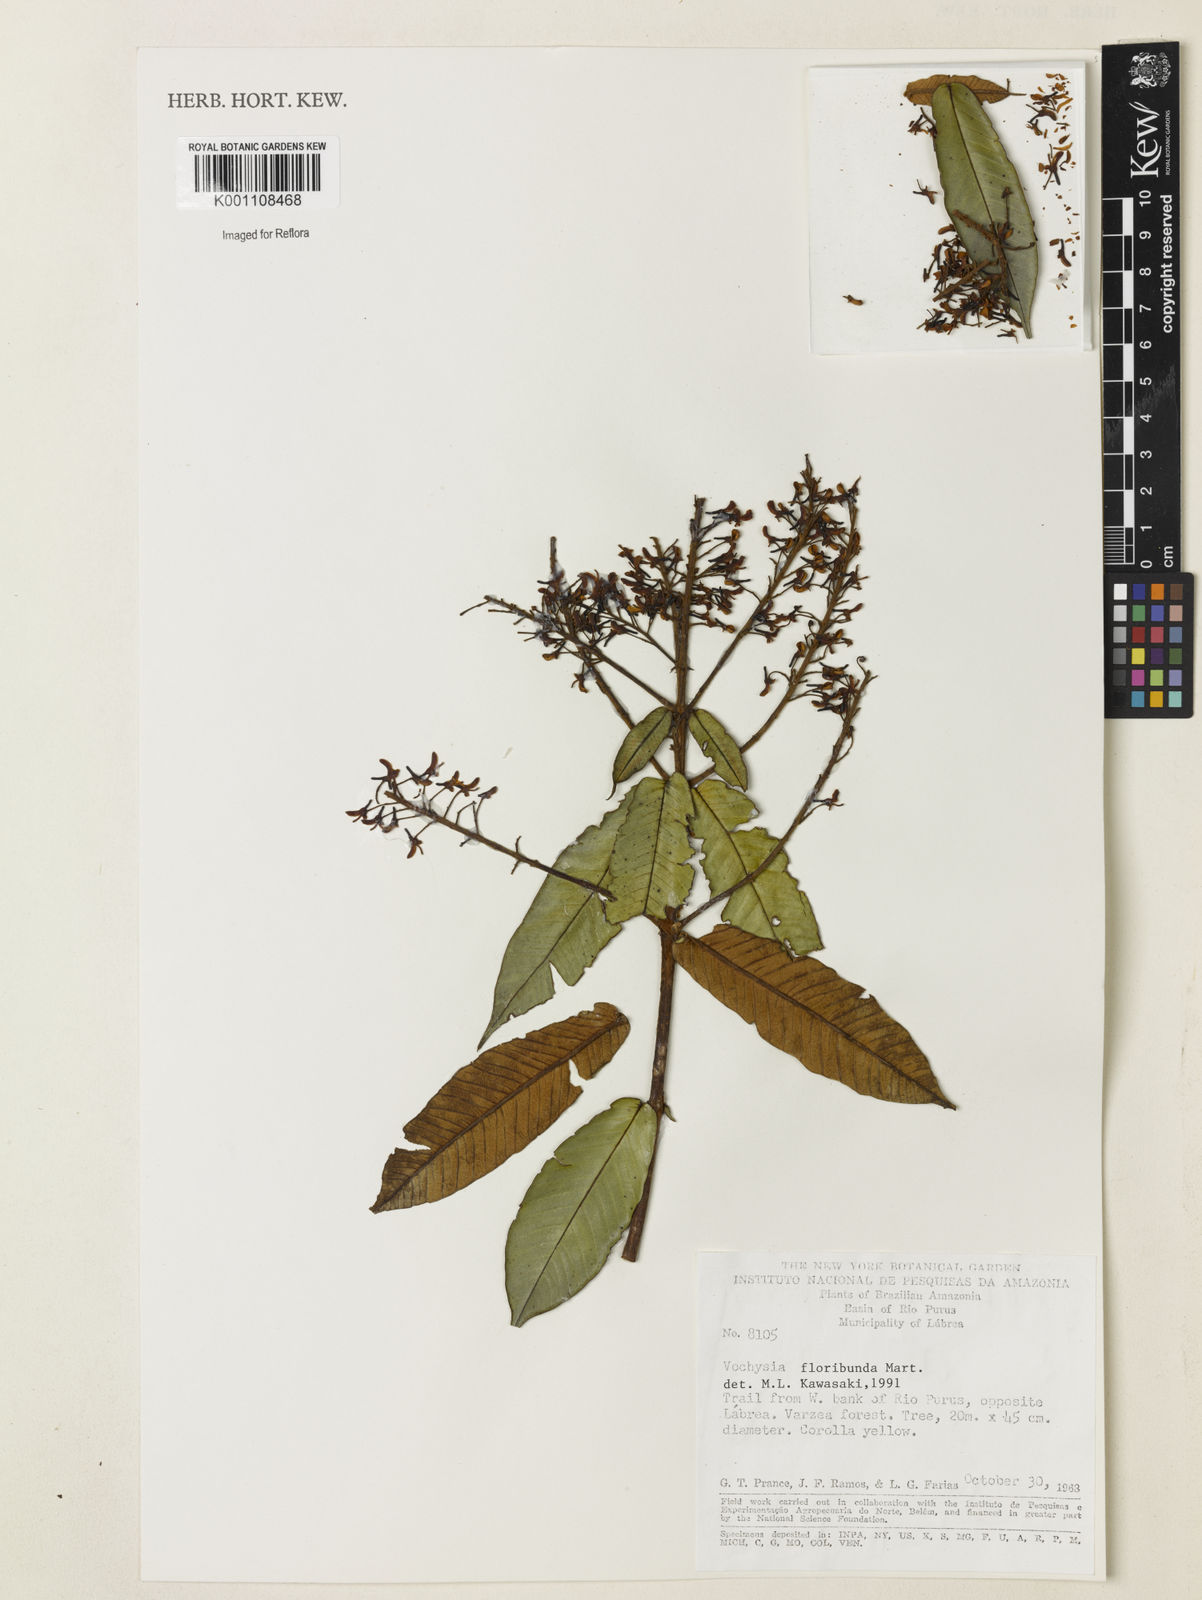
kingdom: Plantae
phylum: Tracheophyta
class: Magnoliopsida
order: Myrtales
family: Vochysiaceae
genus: Vochysia
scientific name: Vochysia floribunda
